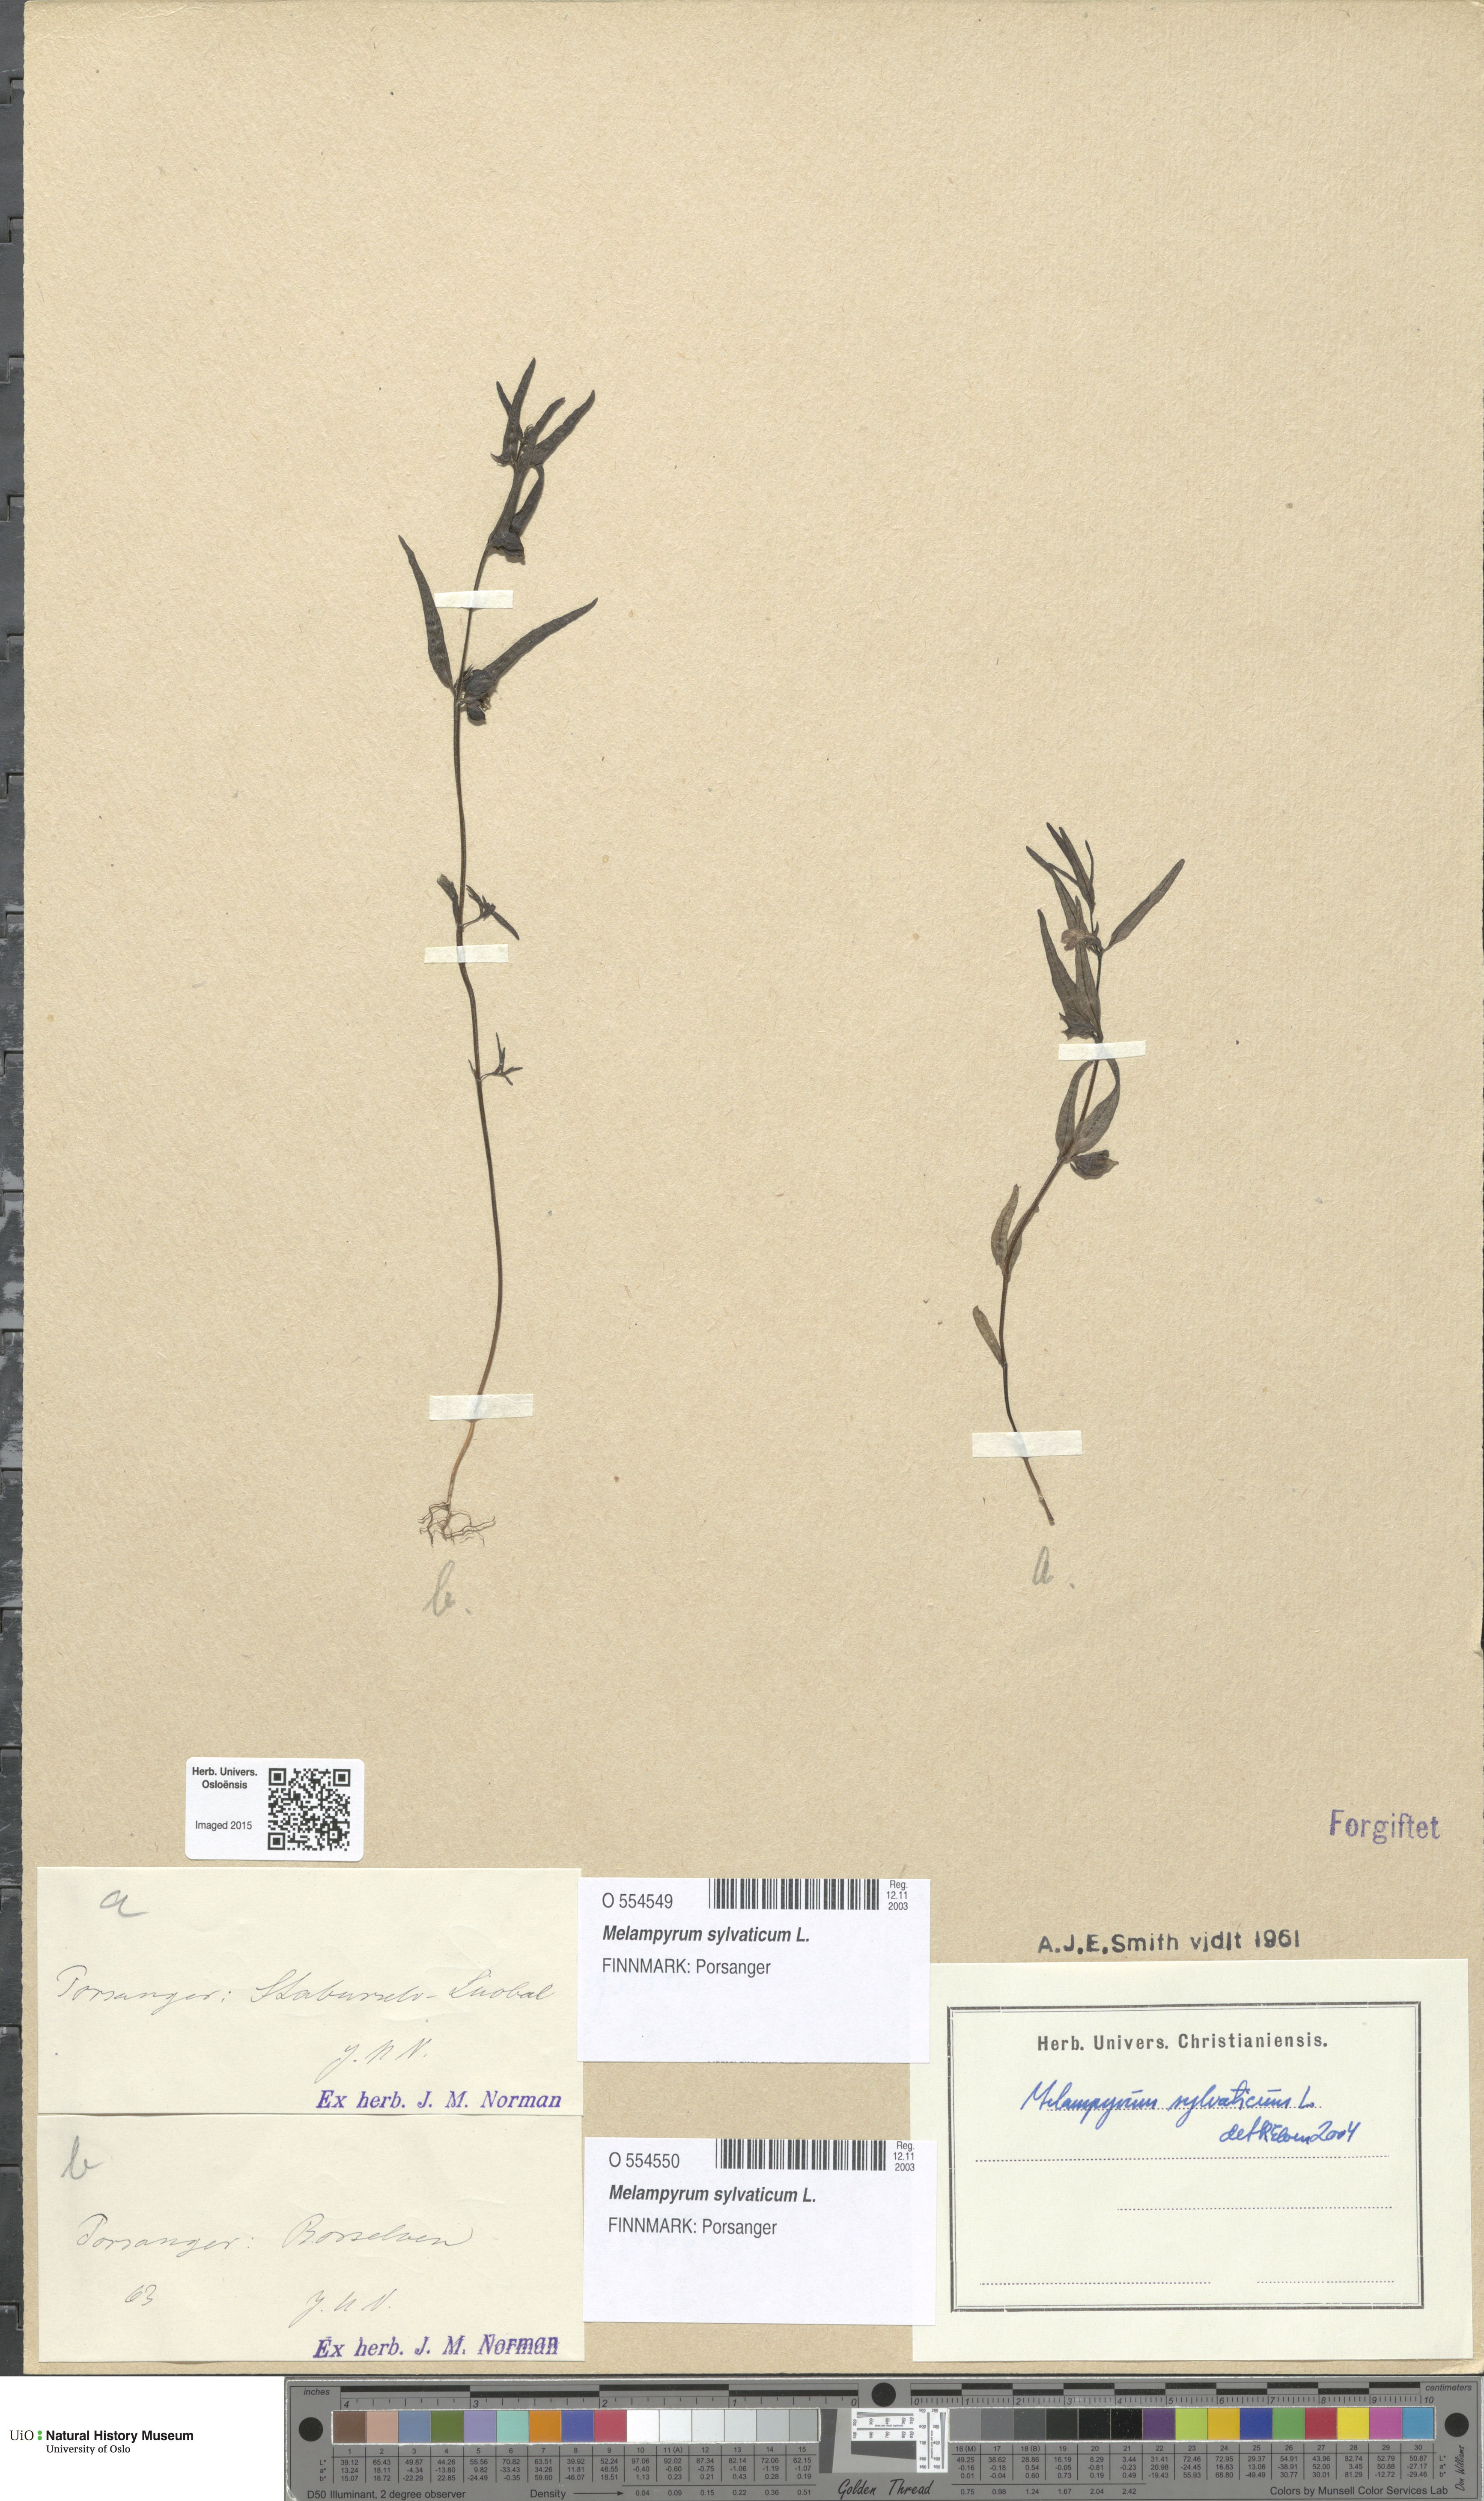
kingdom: Plantae
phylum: Tracheophyta
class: Magnoliopsida
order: Lamiales
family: Orobanchaceae
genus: Melampyrum
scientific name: Melampyrum sylvaticum
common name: Small cow-wheat
